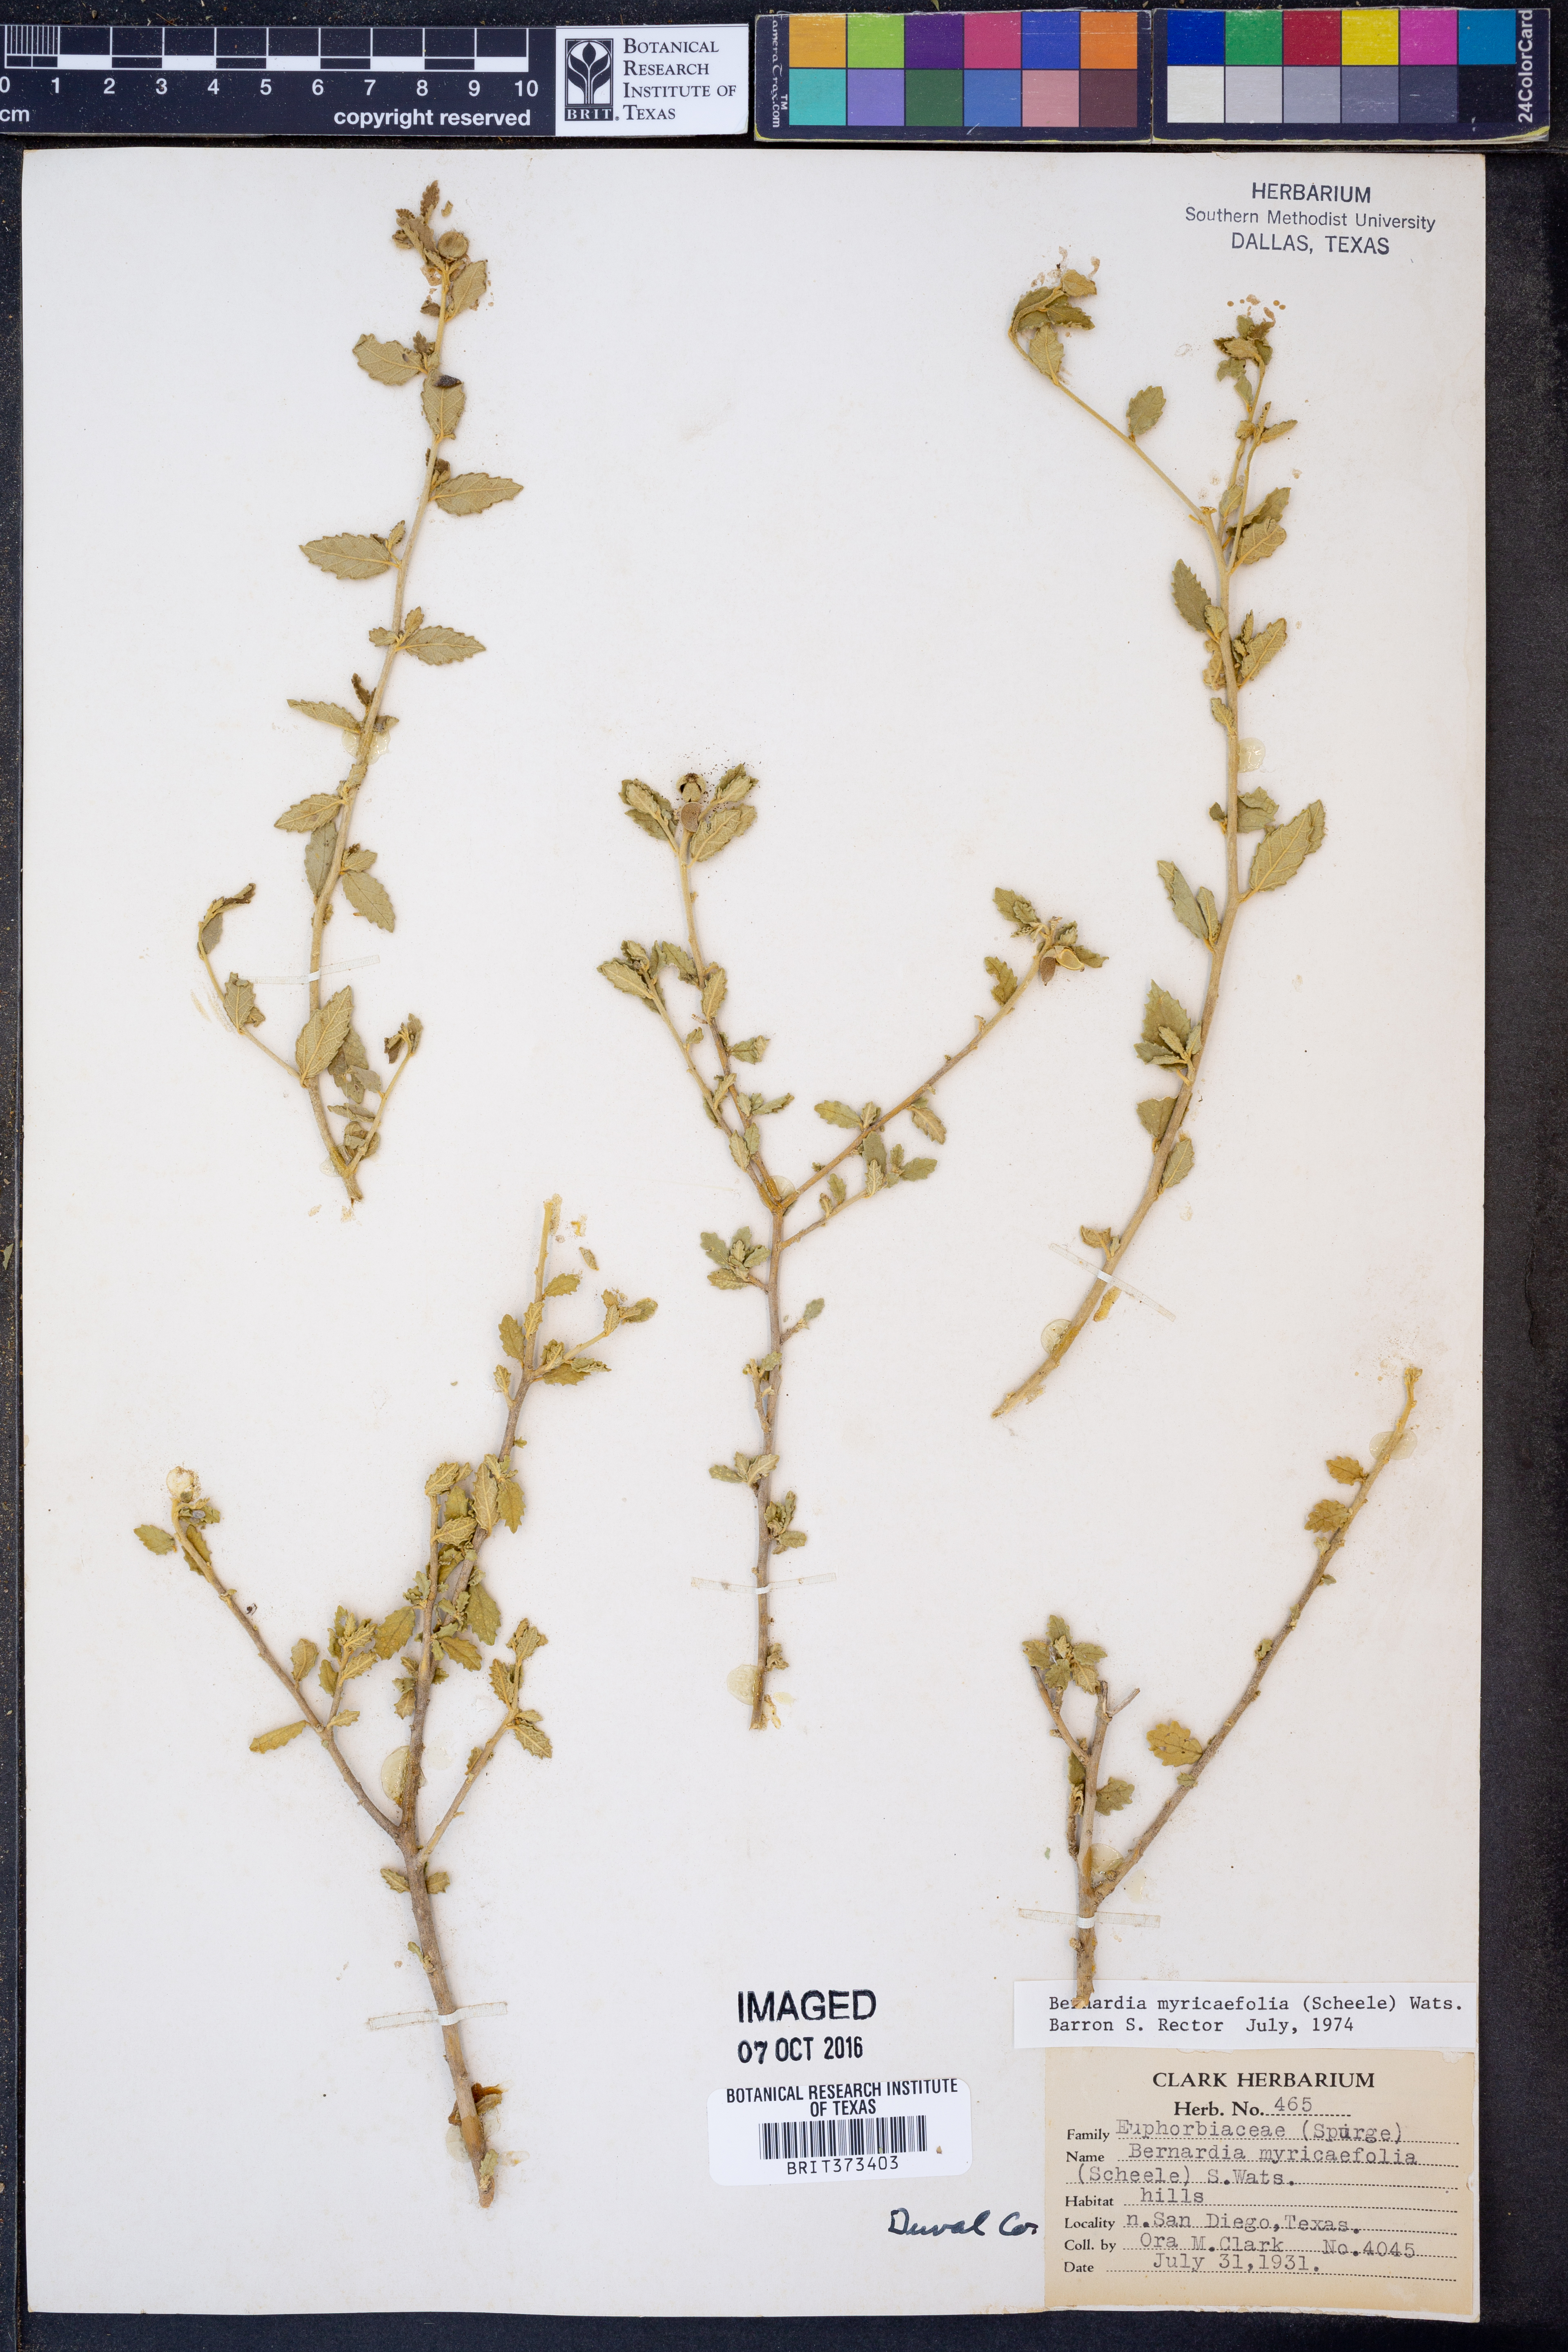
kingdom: Plantae
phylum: Tracheophyta
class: Magnoliopsida
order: Malpighiales
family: Euphorbiaceae
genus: Bernardia
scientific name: Bernardia myricifolia
